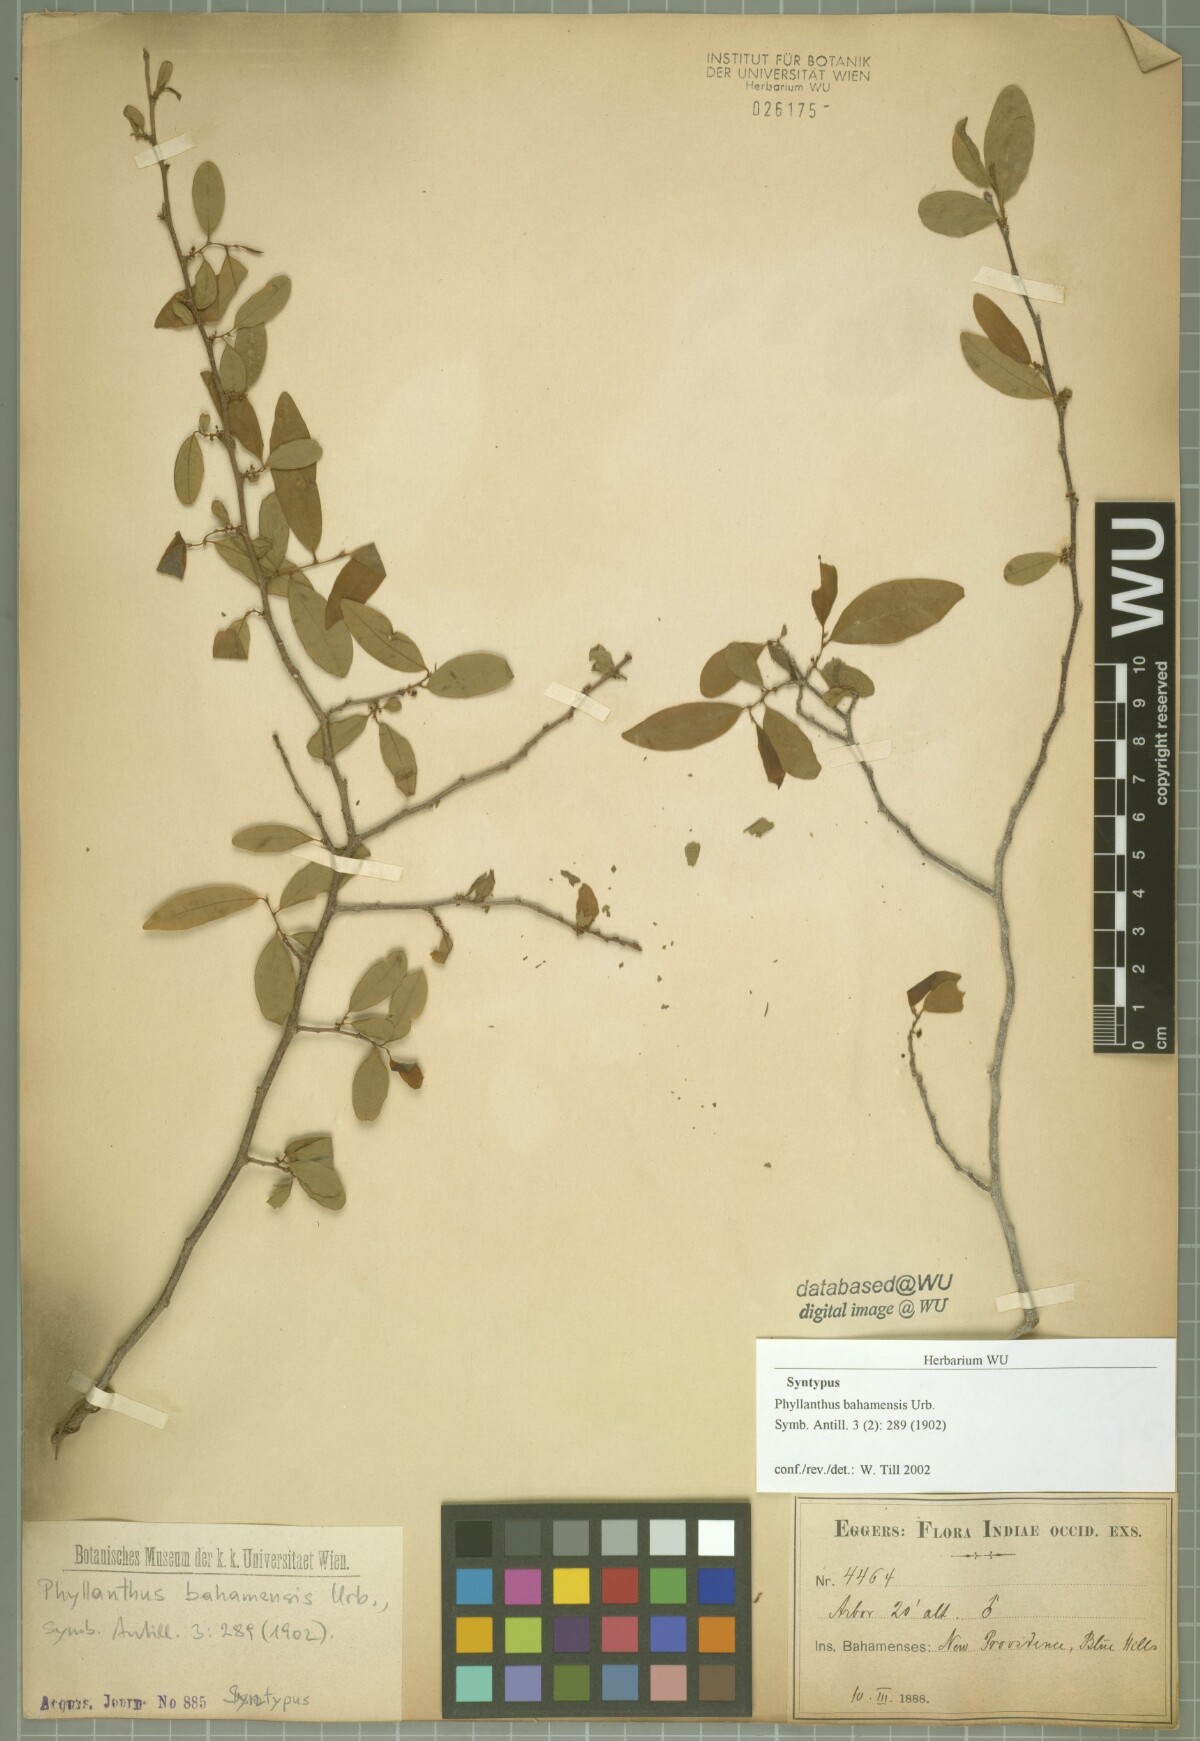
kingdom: Plantae
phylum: Tracheophyta
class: Magnoliopsida
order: Malpighiales
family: Phyllanthaceae
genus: Margaritaria
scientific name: Margaritaria scandens
